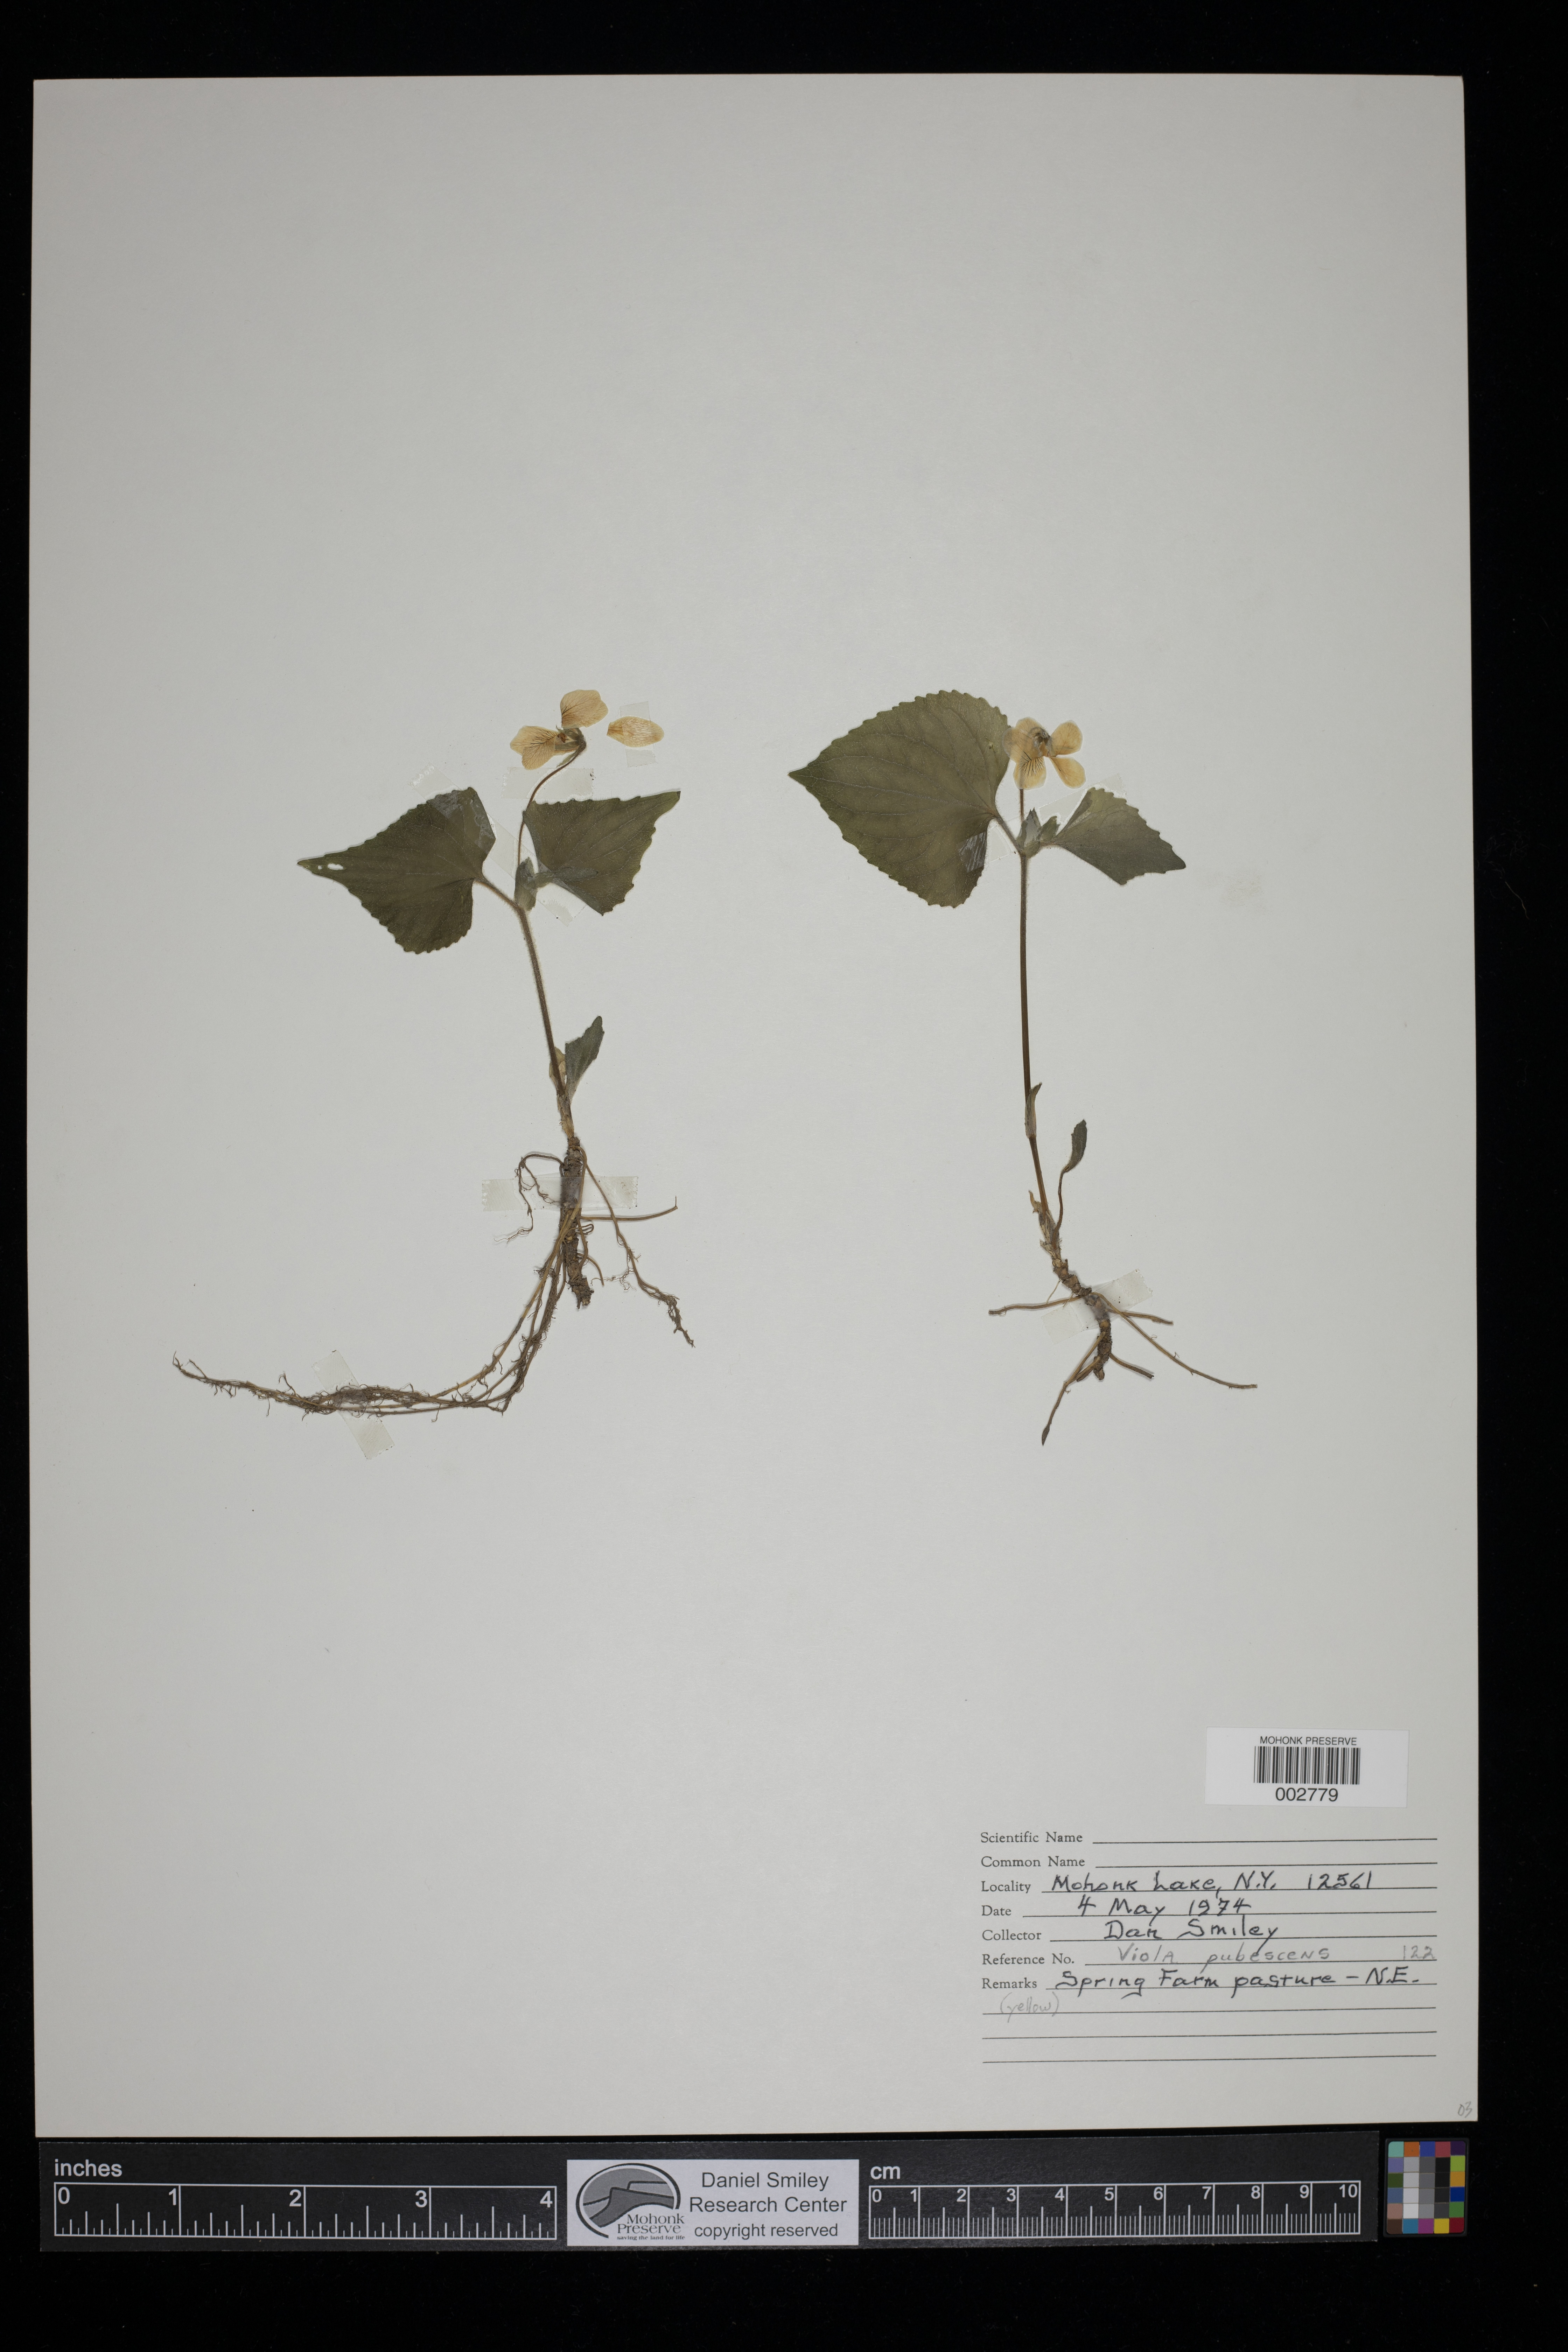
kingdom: Plantae
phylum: Tracheophyta
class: Magnoliopsida
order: Malpighiales
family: Violaceae
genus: Viola
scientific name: Viola pubescens
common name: Yellow forest violet
